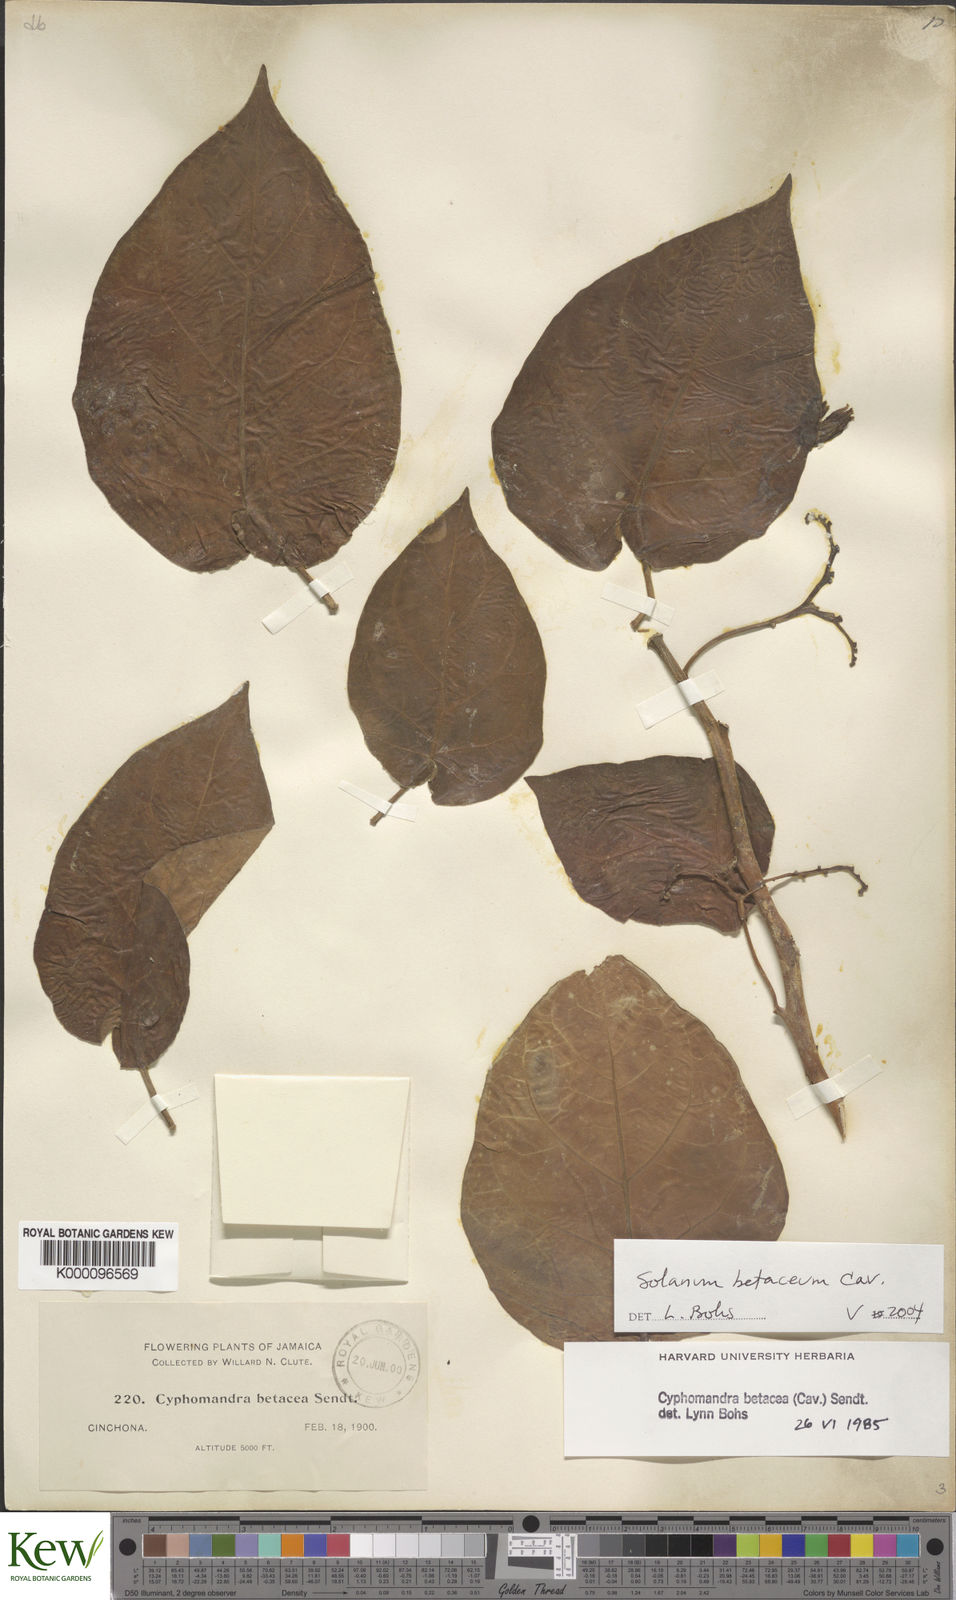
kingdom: Plantae
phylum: Tracheophyta
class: Magnoliopsida
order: Solanales
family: Solanaceae
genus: Solanum
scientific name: Solanum betaceum
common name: Tamarillo
